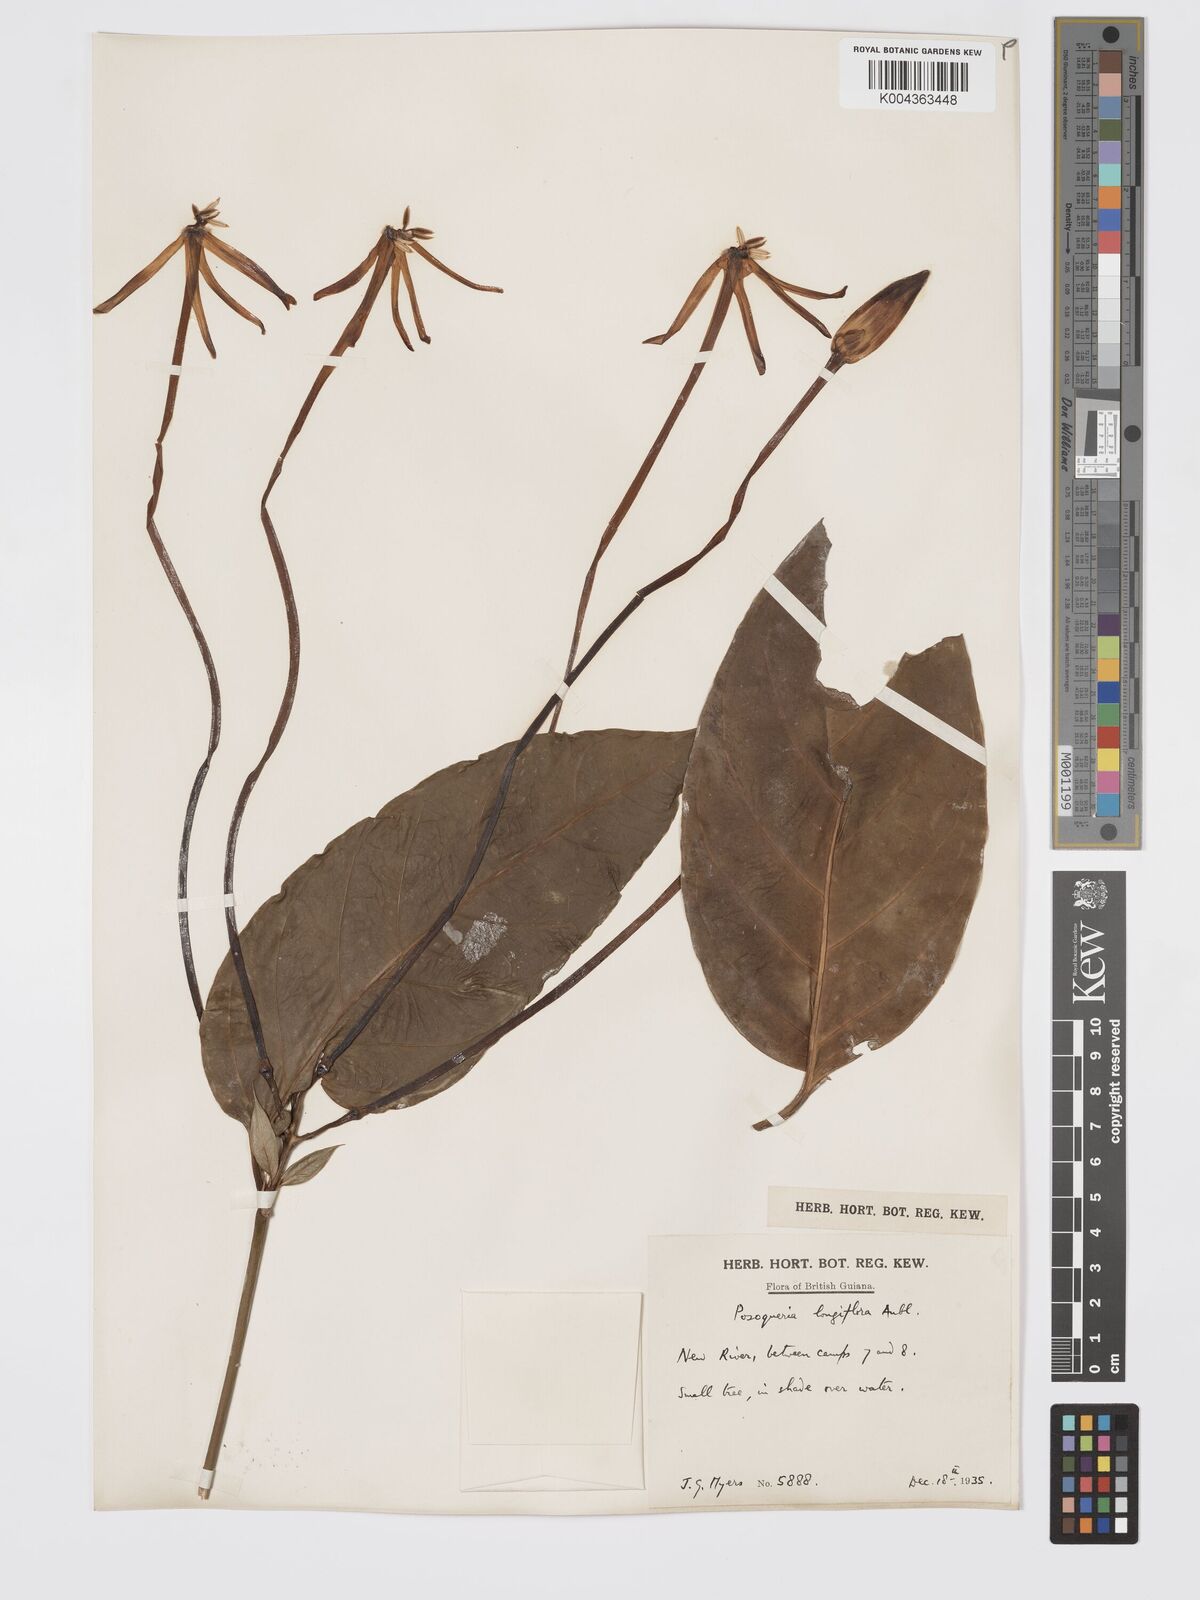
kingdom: Plantae
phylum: Tracheophyta
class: Magnoliopsida
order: Gentianales
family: Rubiaceae
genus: Posoqueria
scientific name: Posoqueria
